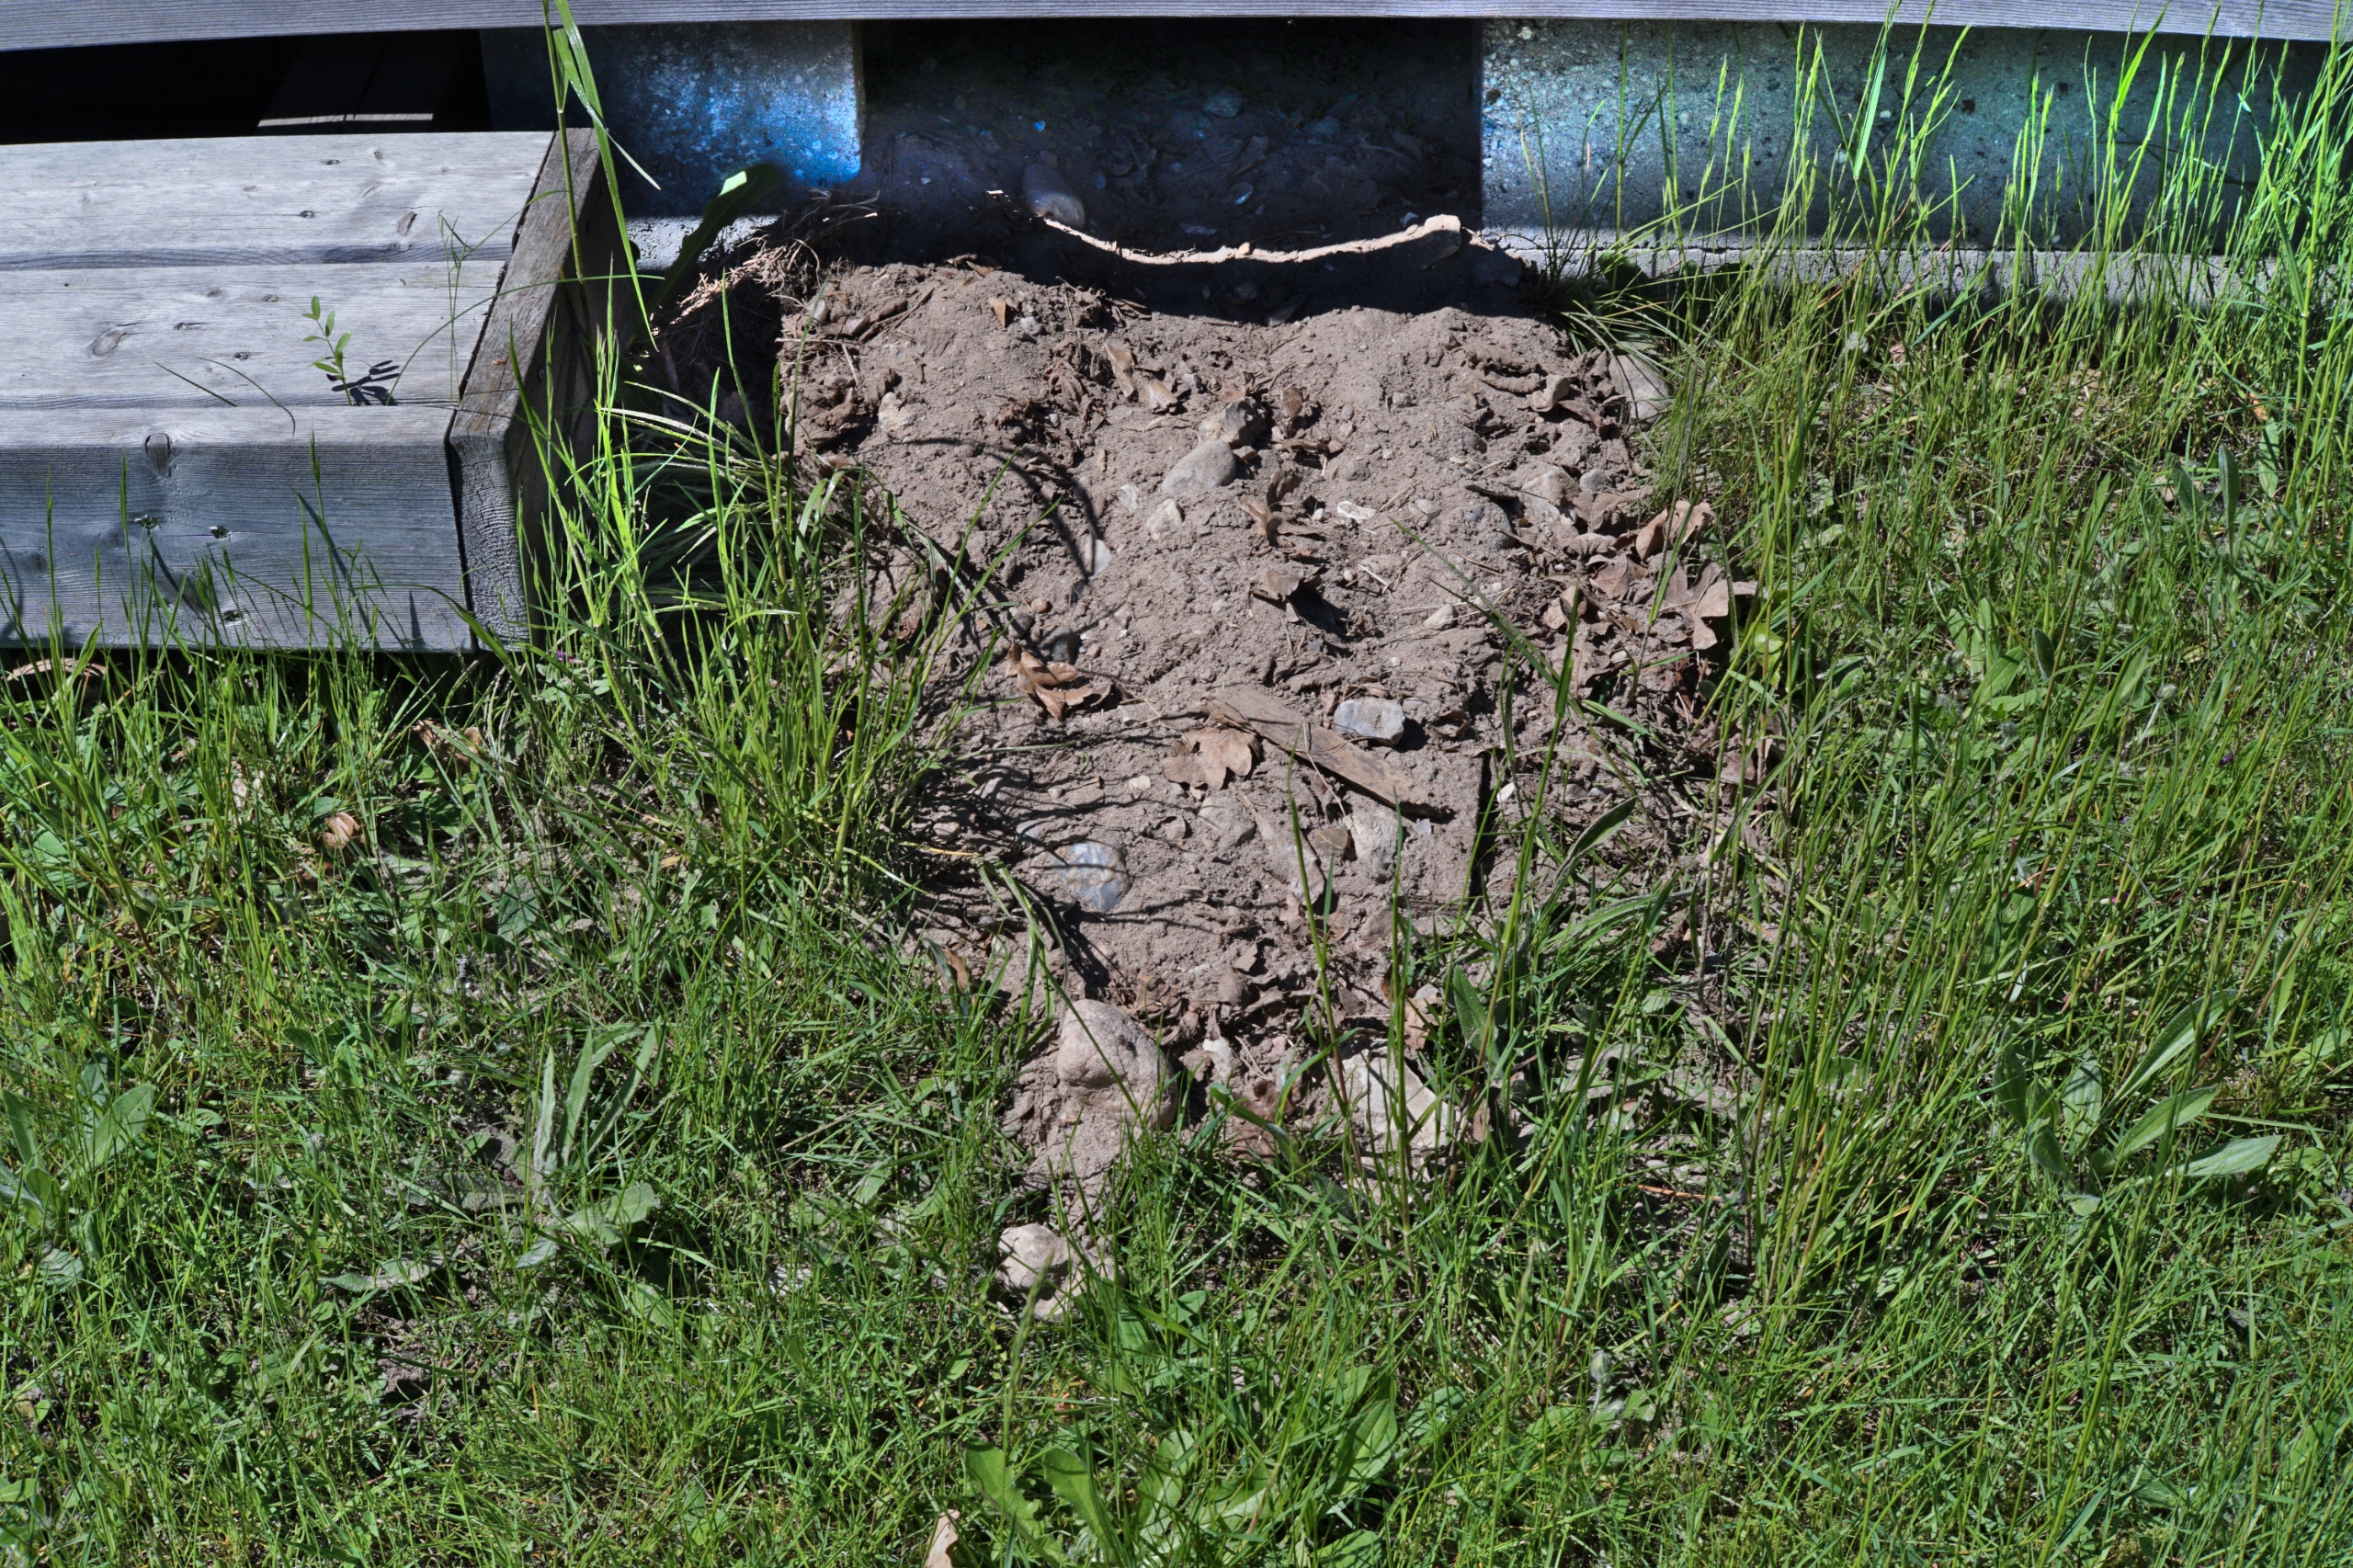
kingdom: Animalia
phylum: Chordata
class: Mammalia
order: Carnivora
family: Mustelidae
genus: Meles
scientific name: Meles meles
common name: Grævling
